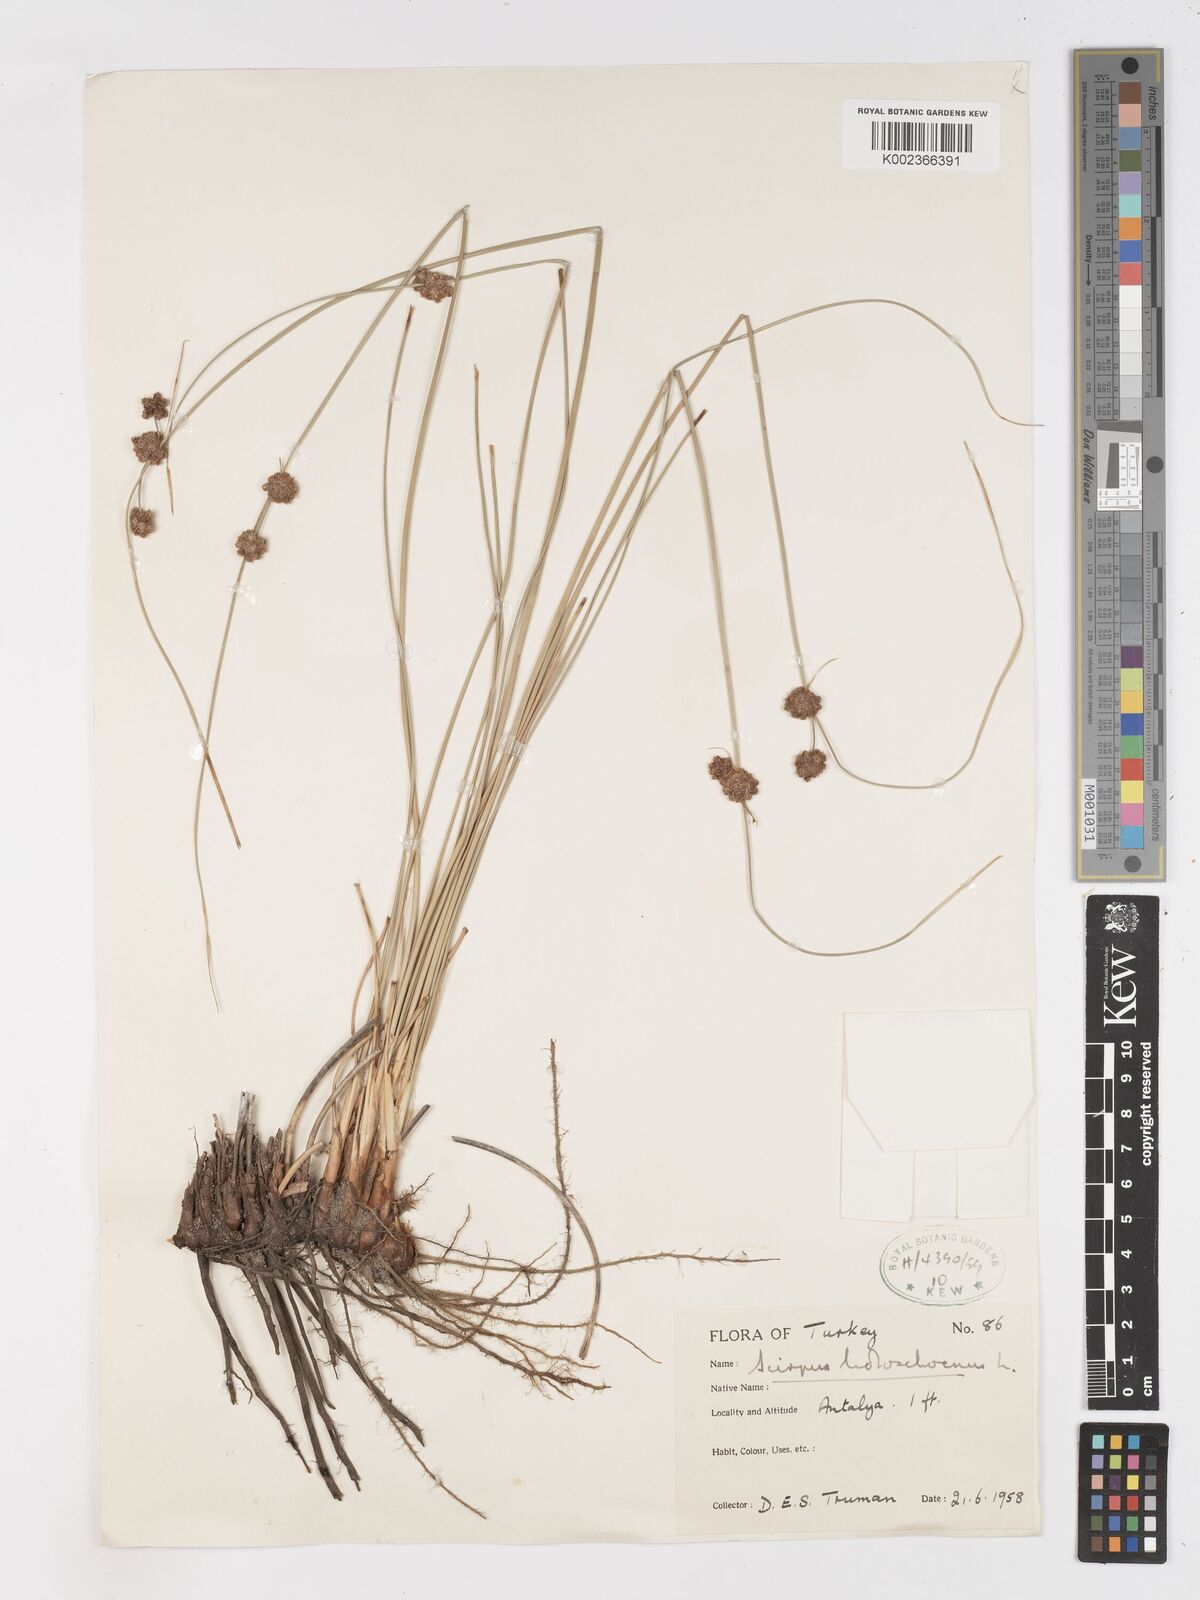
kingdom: Plantae
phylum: Tracheophyta
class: Liliopsida
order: Poales
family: Cyperaceae
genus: Scirpoides
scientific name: Scirpoides holoschoenus
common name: Round-headed club-rush
